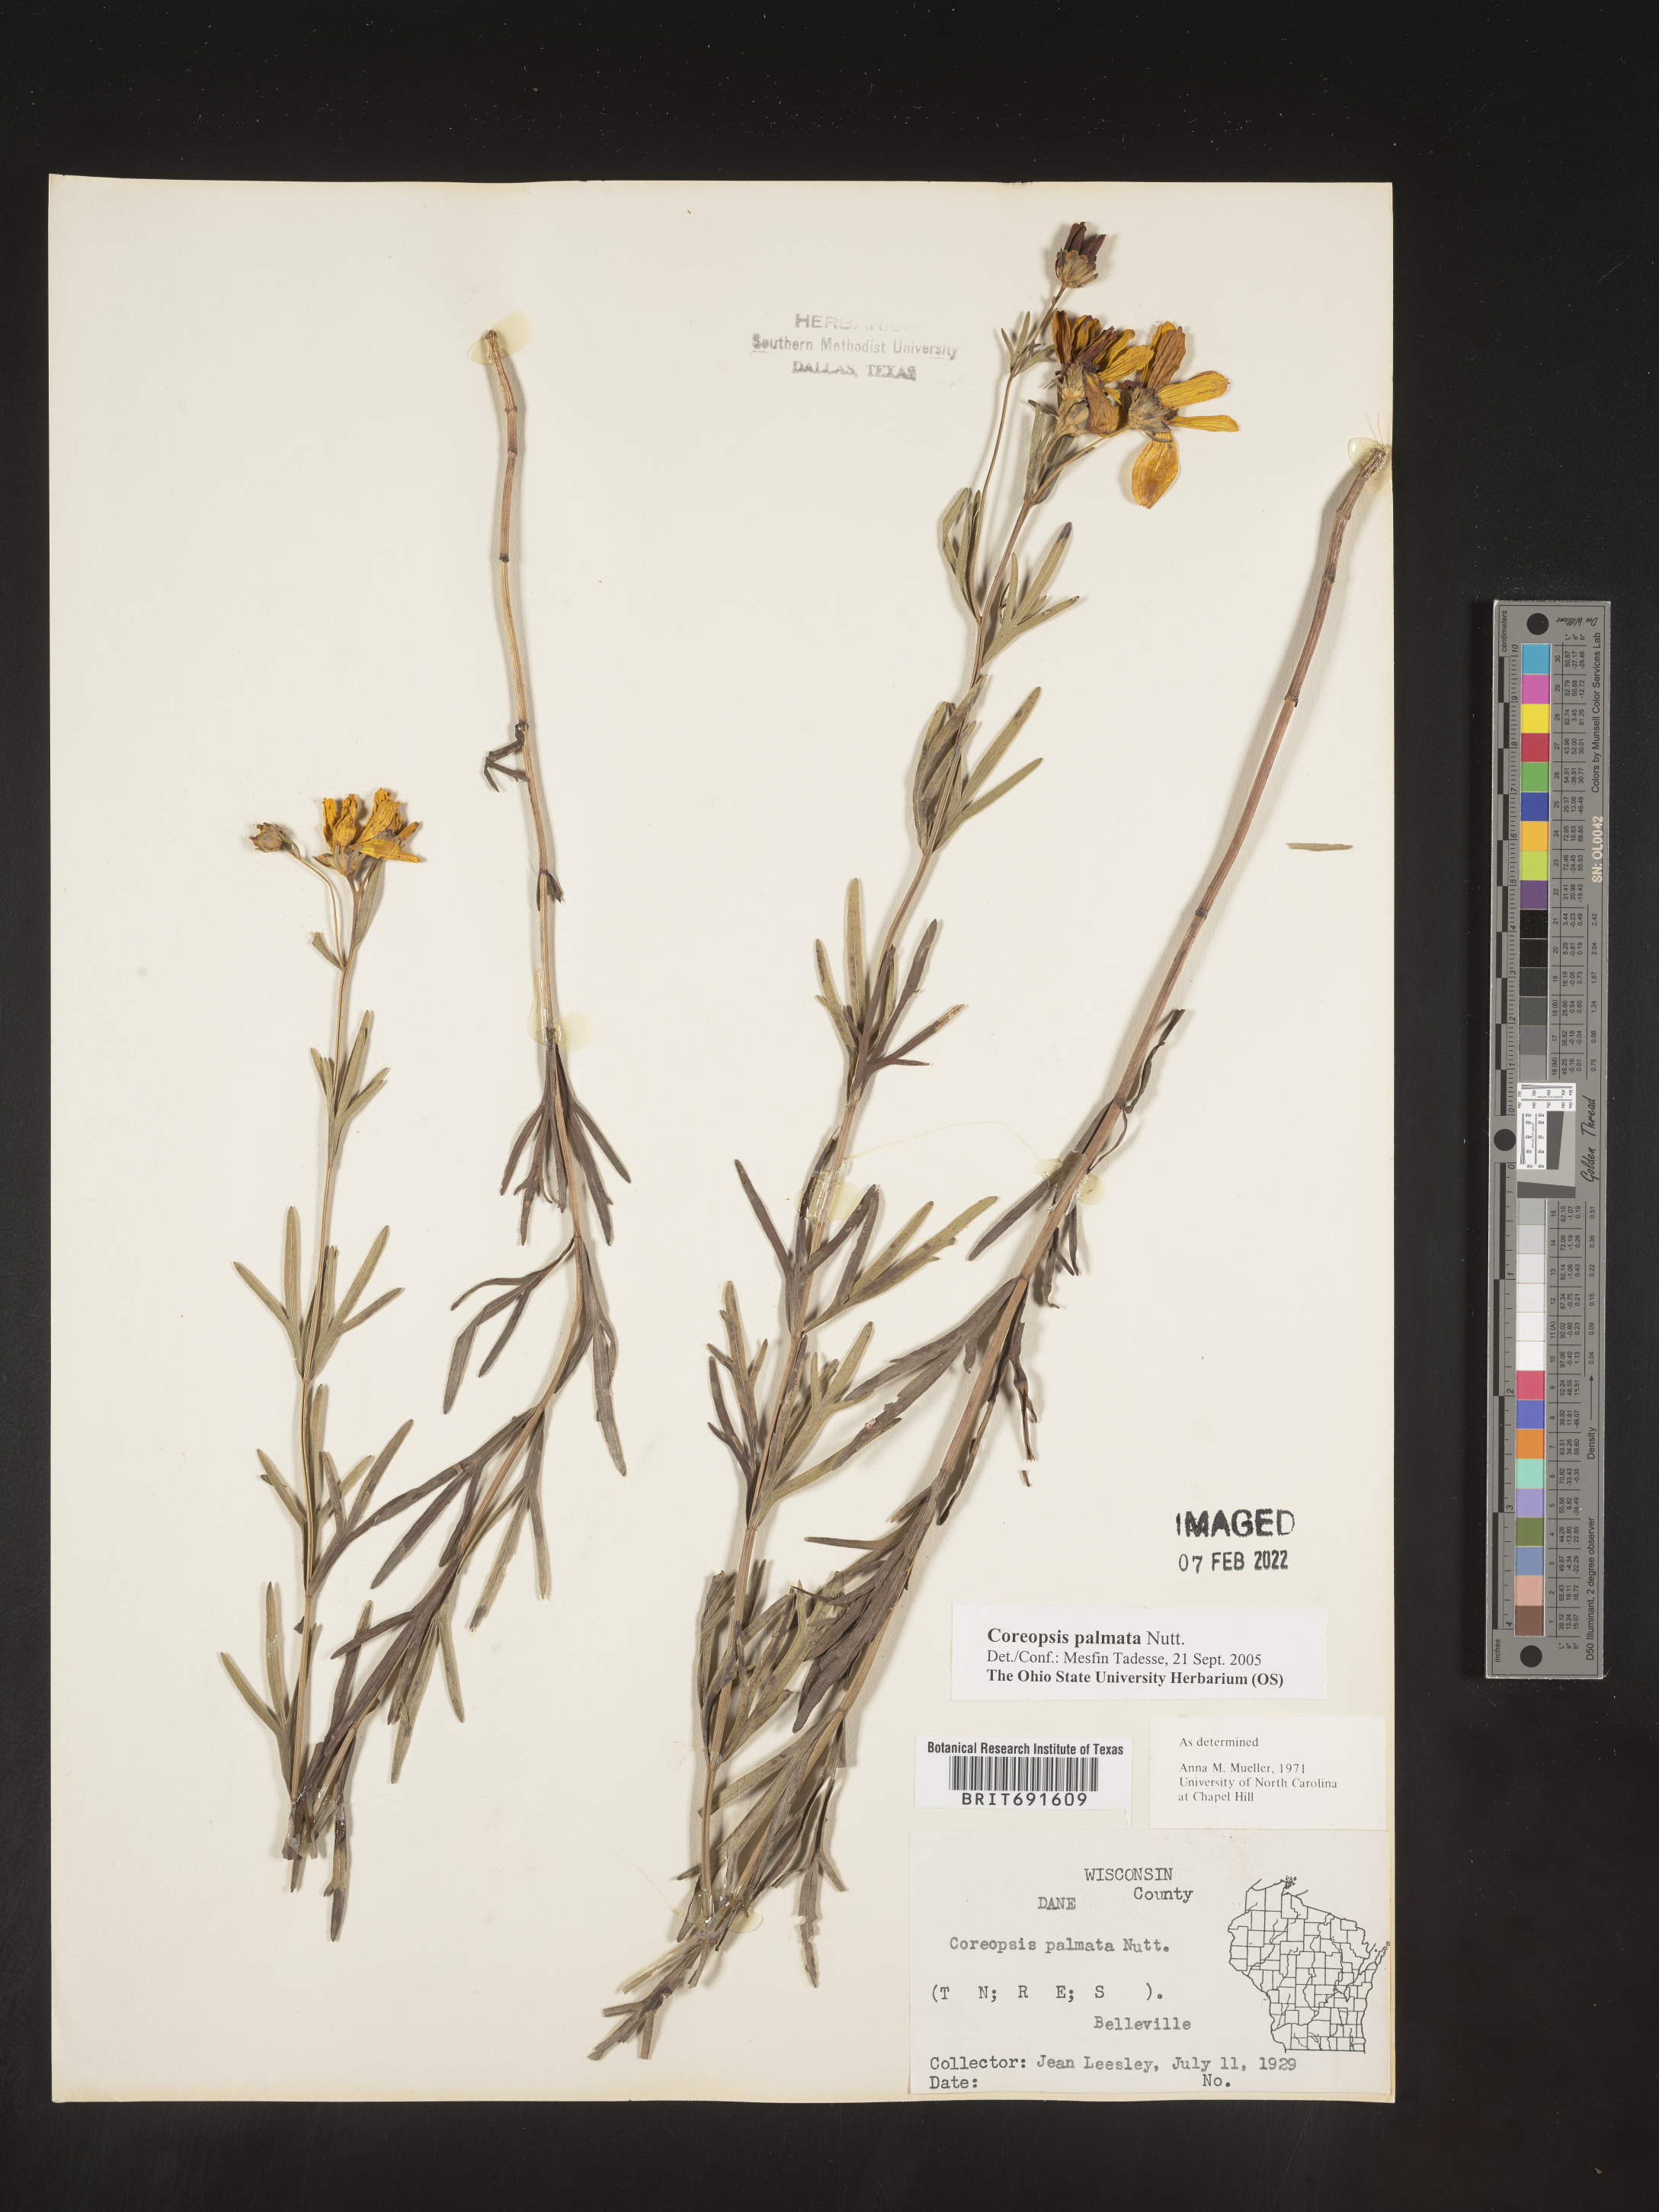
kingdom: Plantae
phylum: Tracheophyta
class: Magnoliopsida
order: Asterales
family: Asteraceae
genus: Coreopsis
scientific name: Coreopsis palmata
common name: Prairie coreopsis
